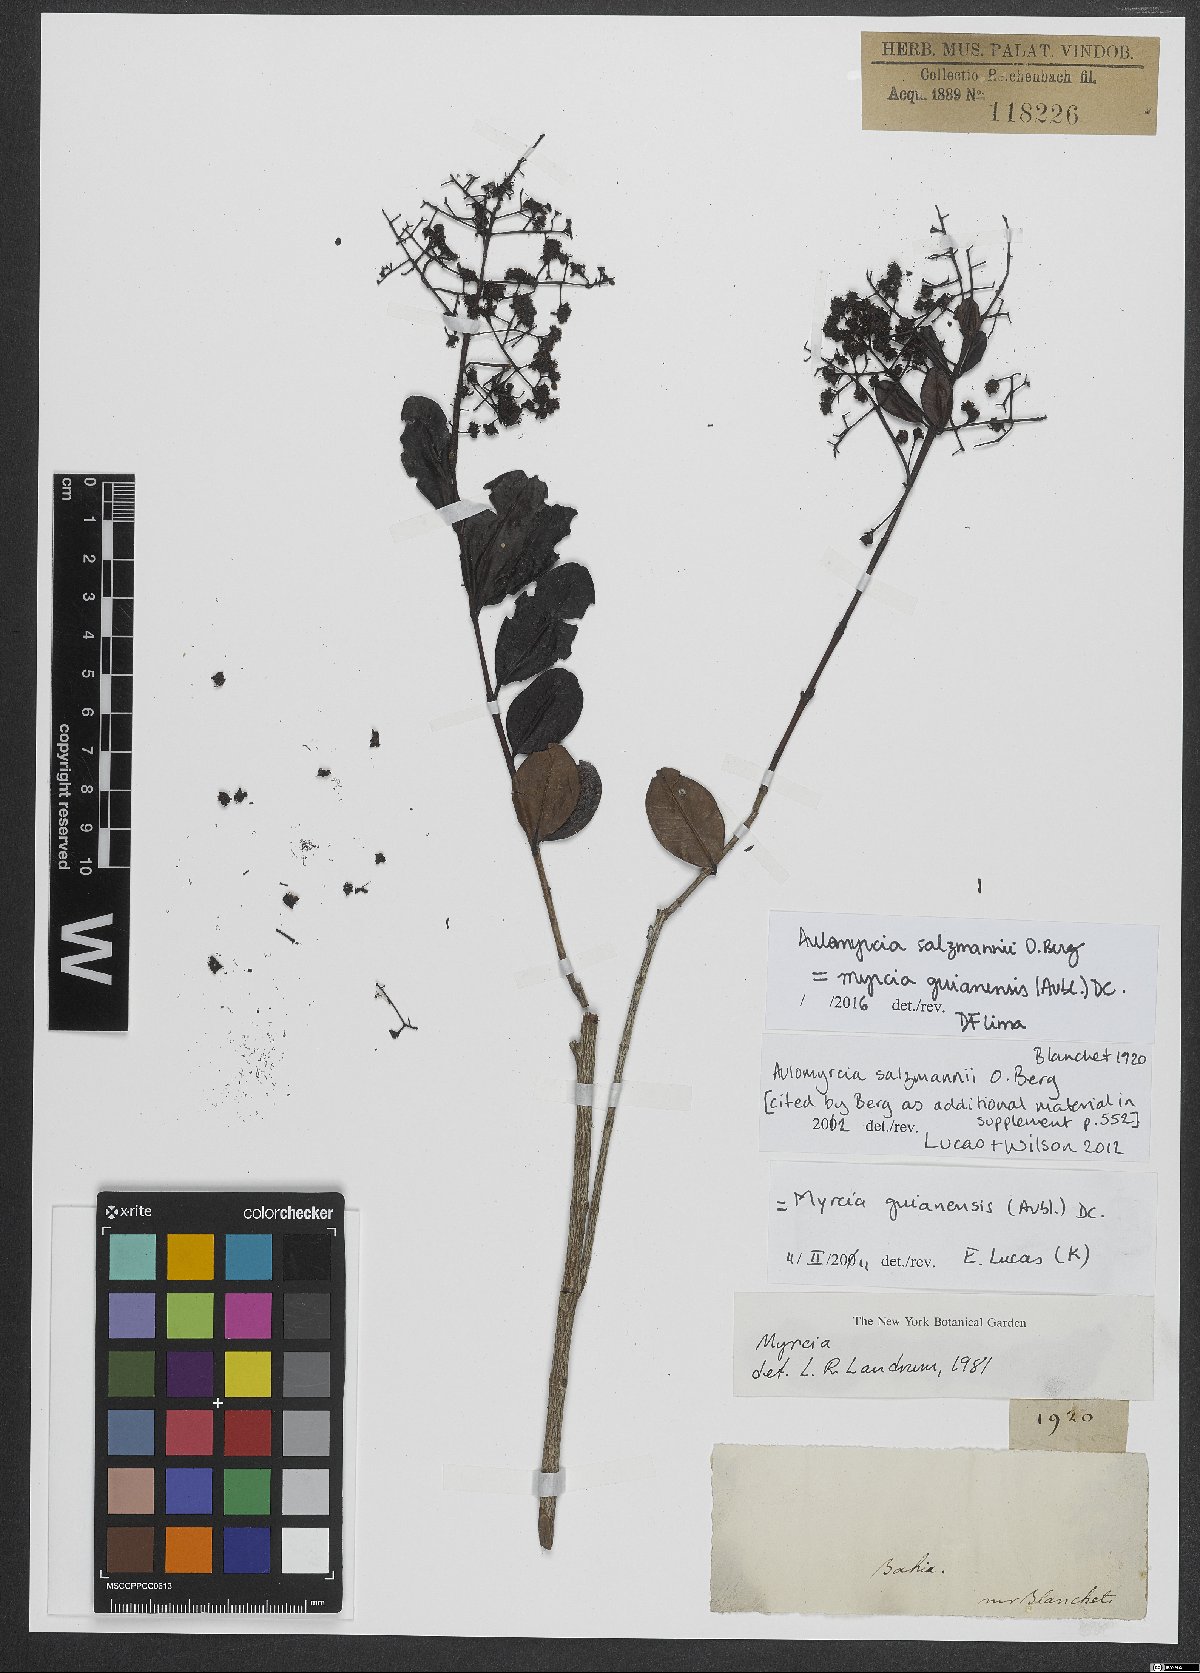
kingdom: Plantae
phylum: Tracheophyta
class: Magnoliopsida
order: Myrtales
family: Myrtaceae
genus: Myrcia
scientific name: Myrcia guianensis
